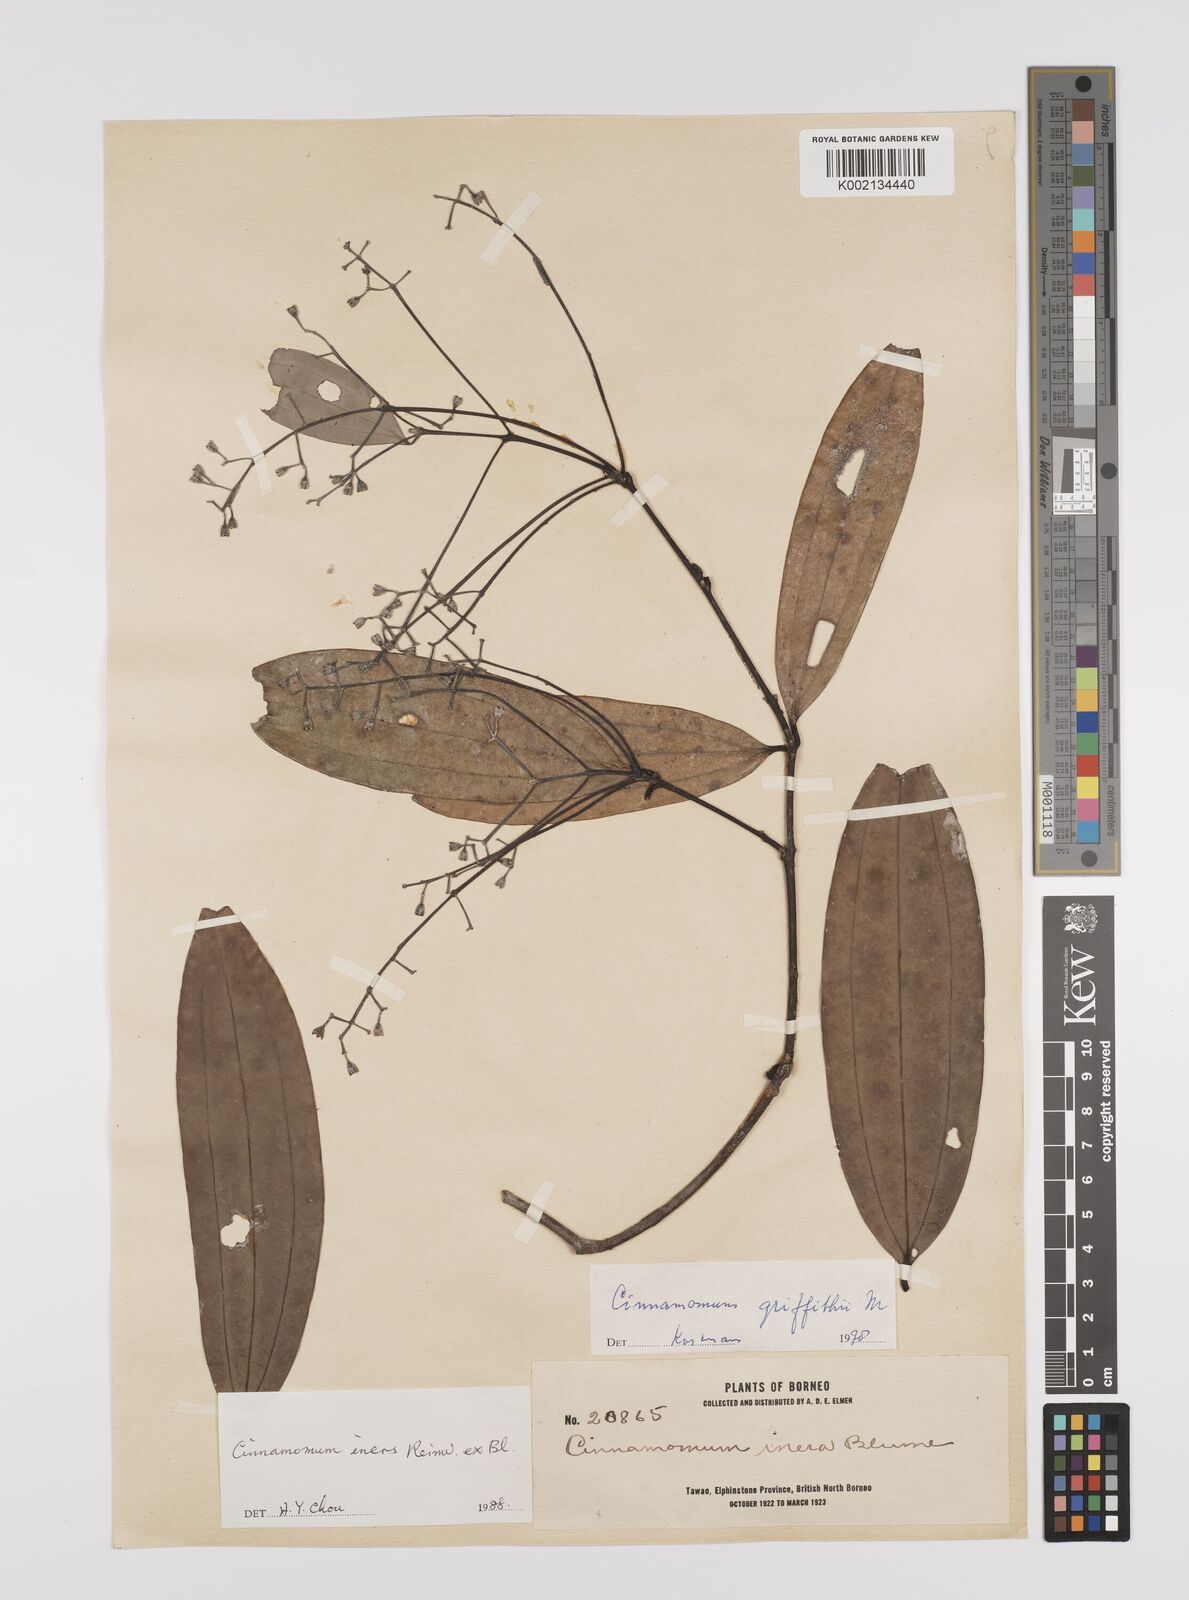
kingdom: Plantae
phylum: Tracheophyta
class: Magnoliopsida
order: Laurales
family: Lauraceae
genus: Cinnamomum
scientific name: Cinnamomum iners
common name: Wild cinnamon
